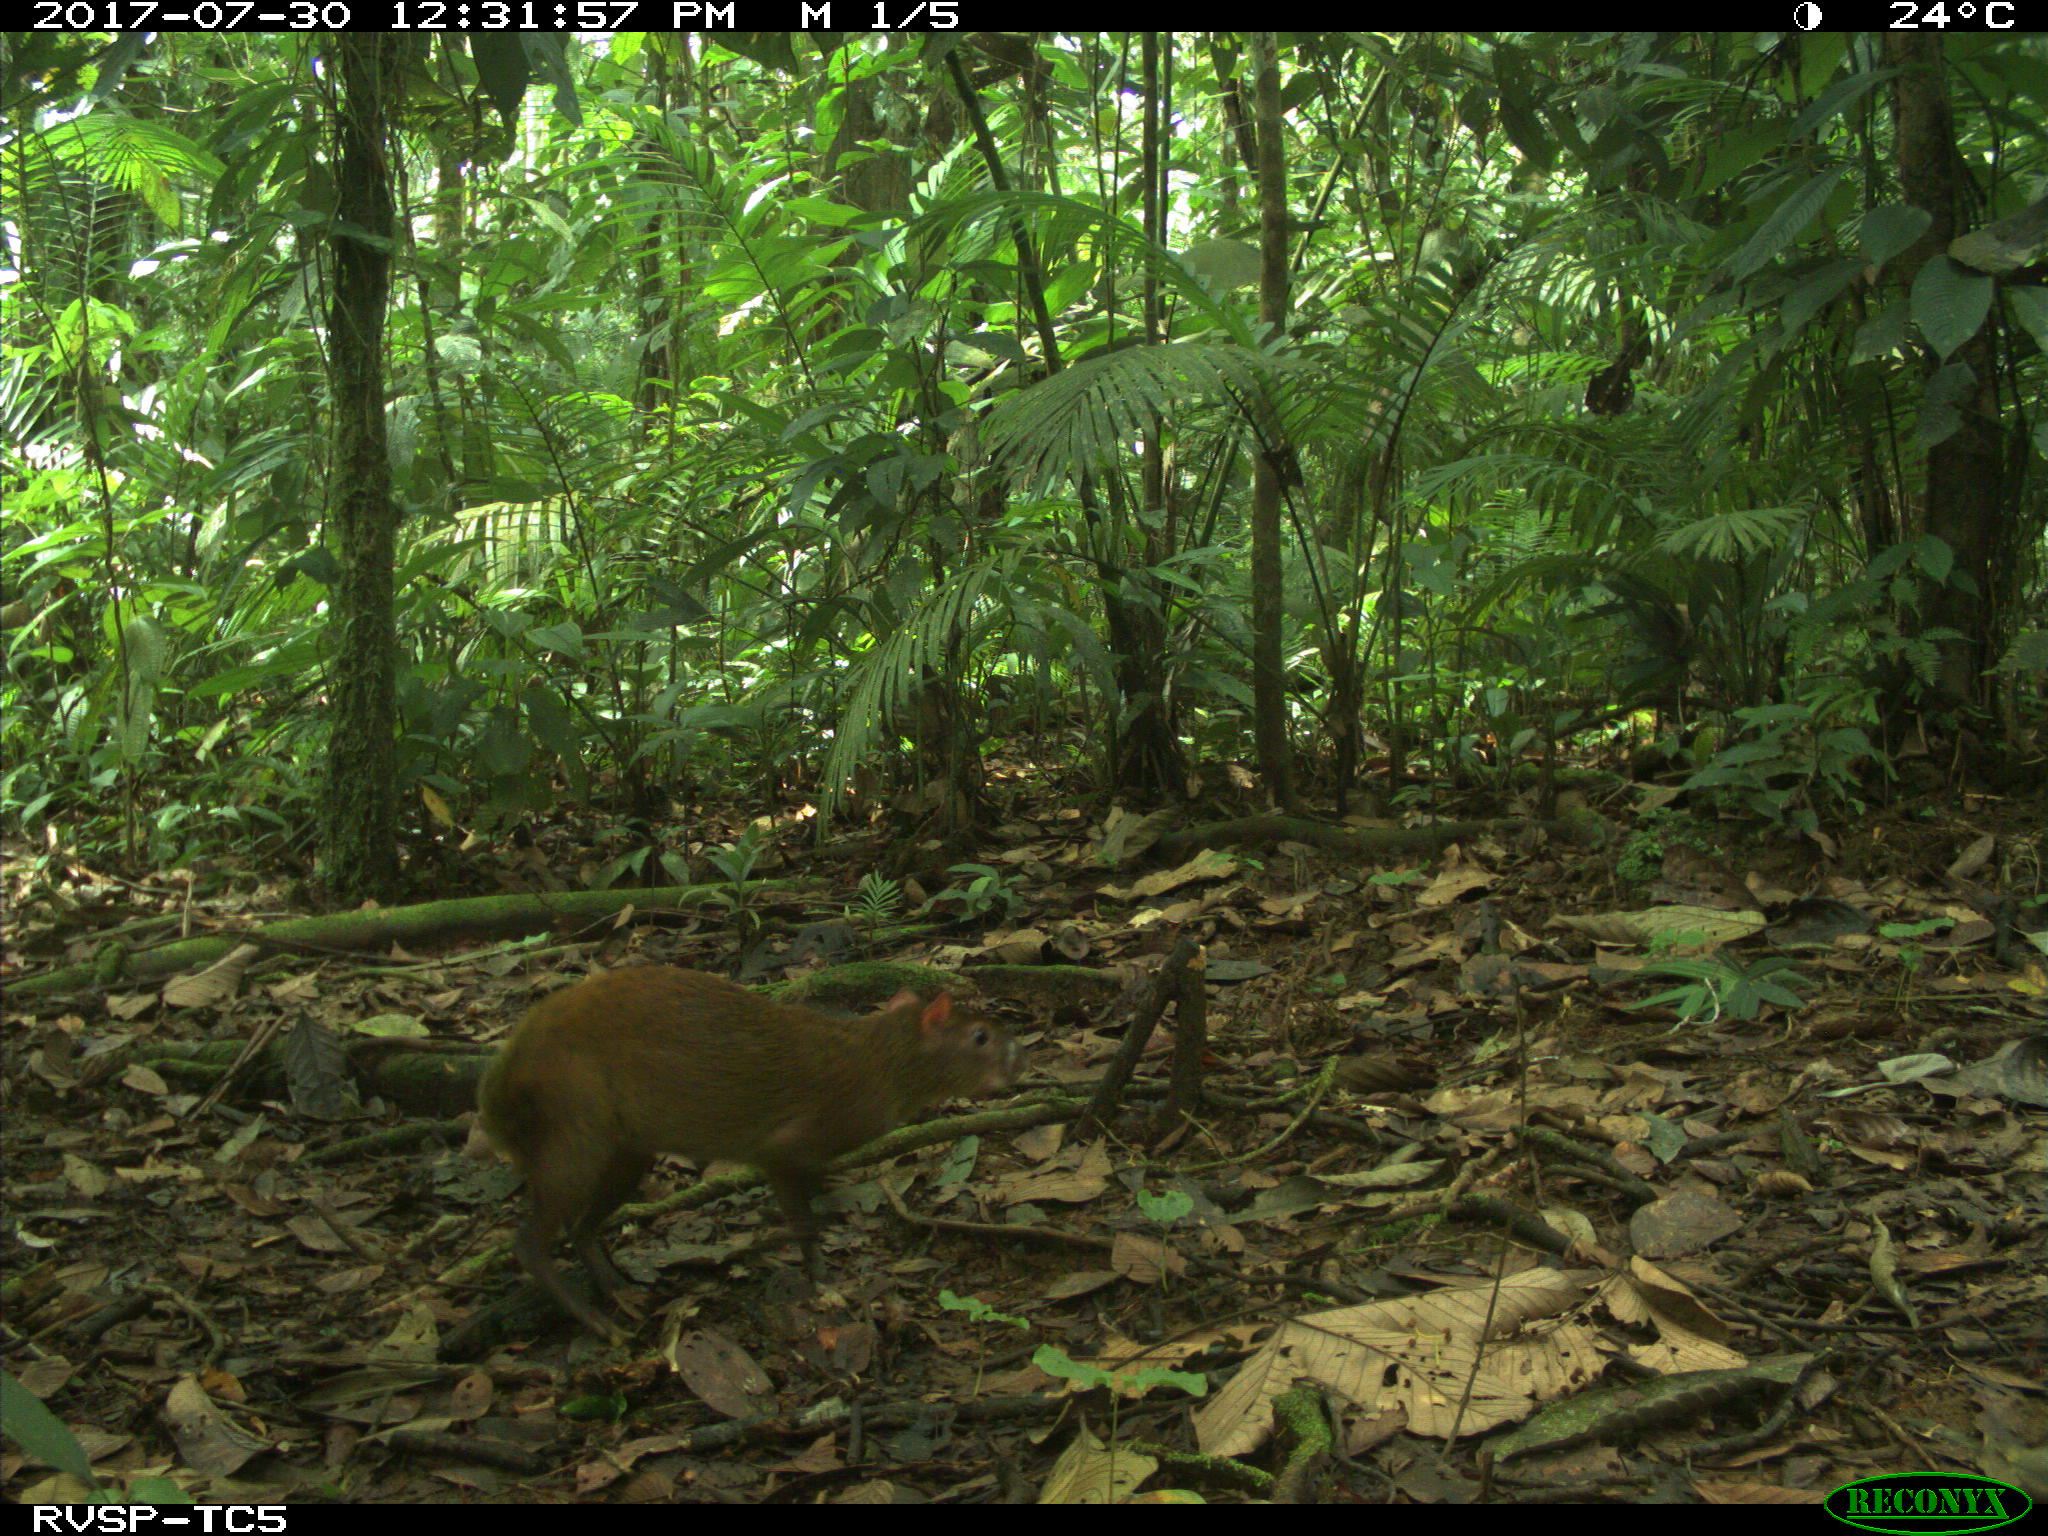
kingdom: Animalia
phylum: Chordata
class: Mammalia
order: Rodentia
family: Dasyproctidae
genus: Dasyprocta
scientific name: Dasyprocta punctata
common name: Central american agouti
